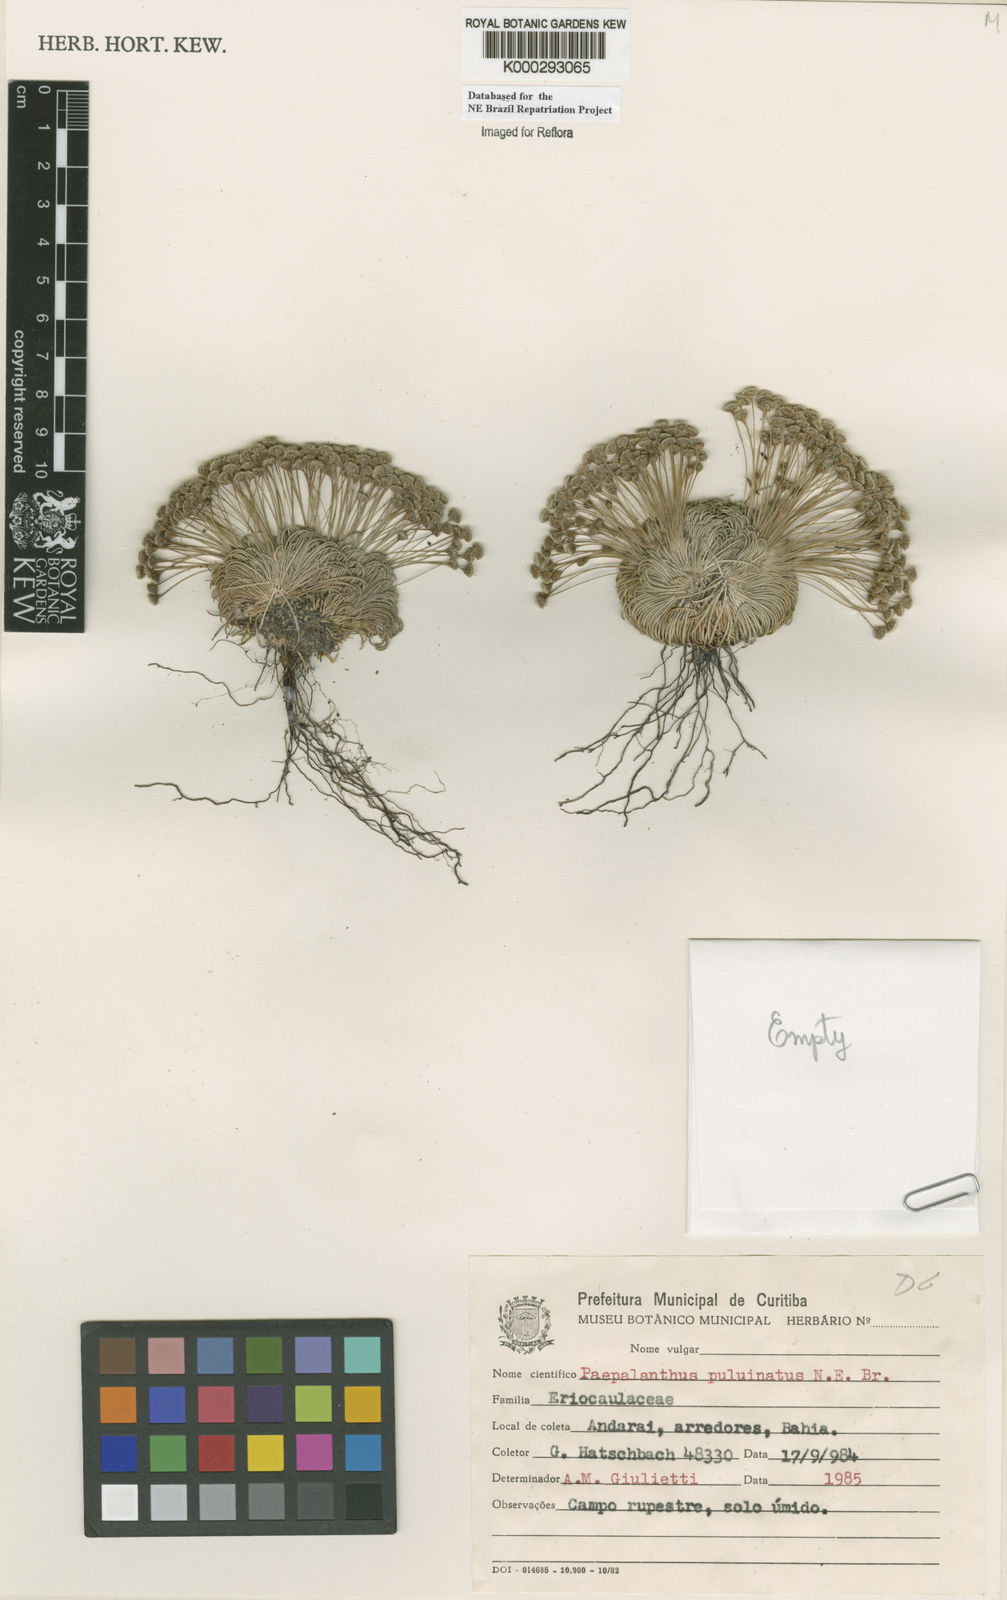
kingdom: Plantae
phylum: Tracheophyta
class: Liliopsida
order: Poales
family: Eriocaulaceae
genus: Paepalanthus
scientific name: Paepalanthus pulvinatus
